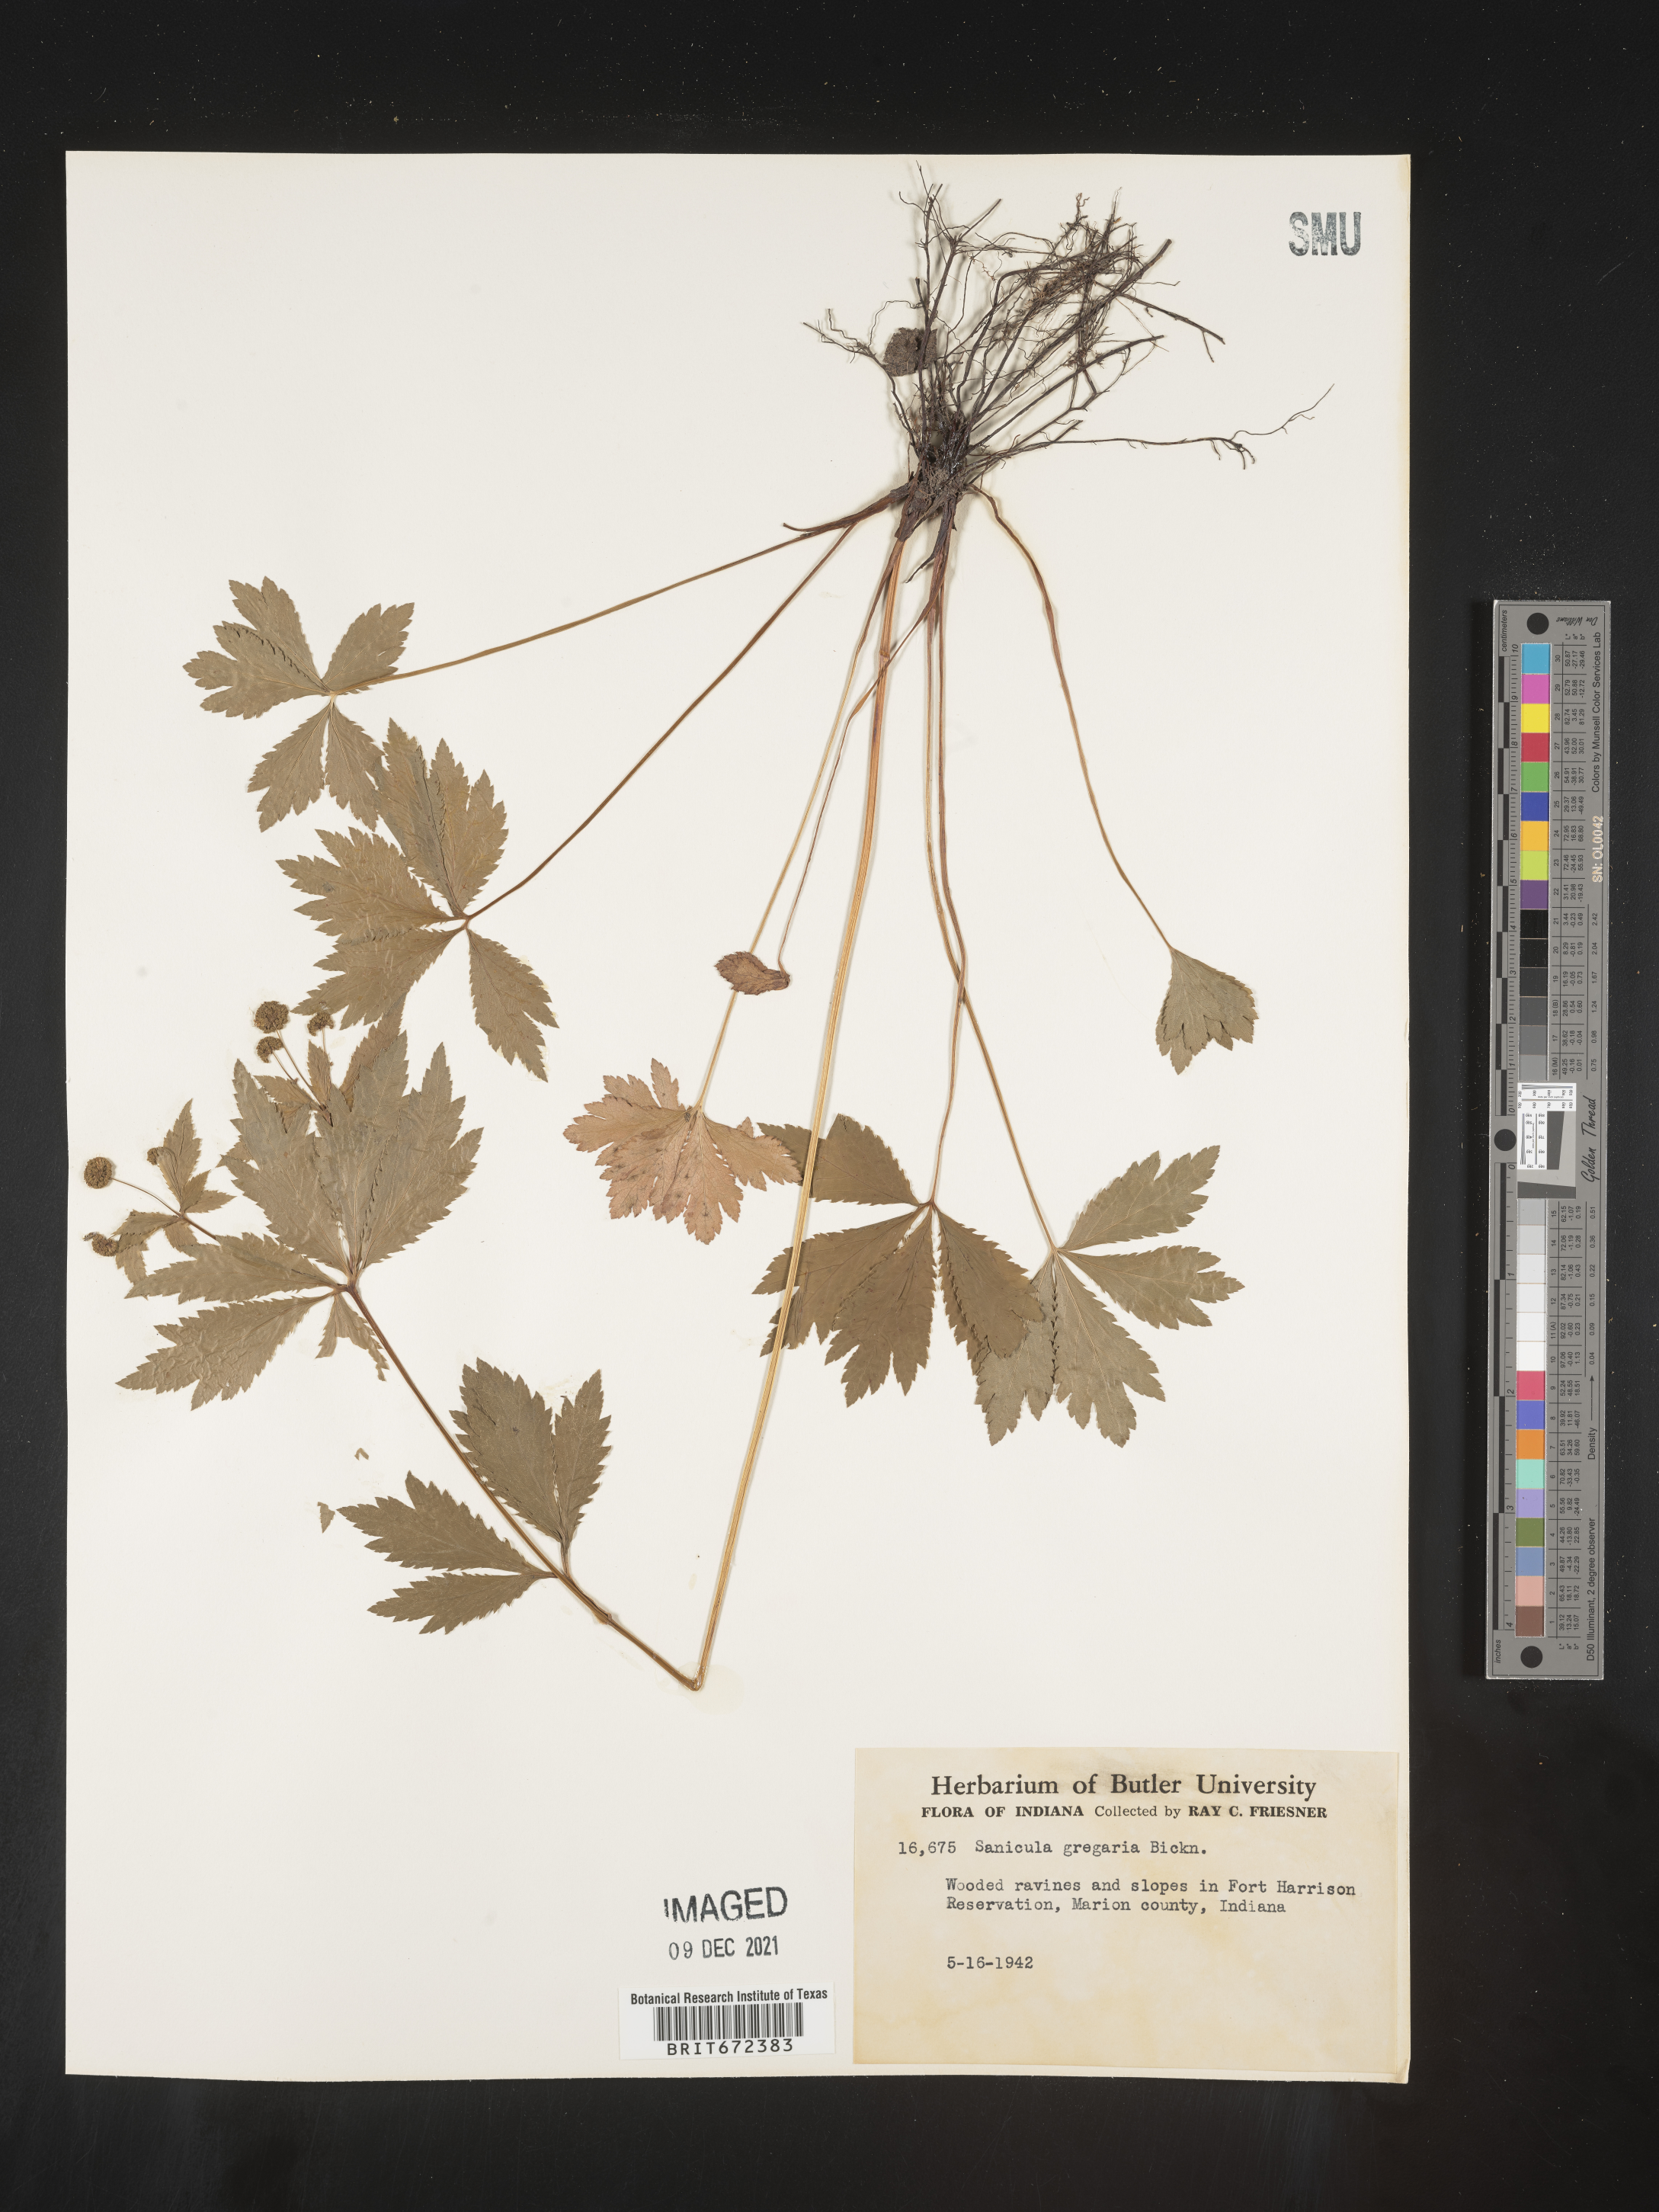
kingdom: Plantae
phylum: Tracheophyta
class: Magnoliopsida
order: Apiales
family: Apiaceae
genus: Sanicula
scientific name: Sanicula odorata
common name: Cluster sanicle
